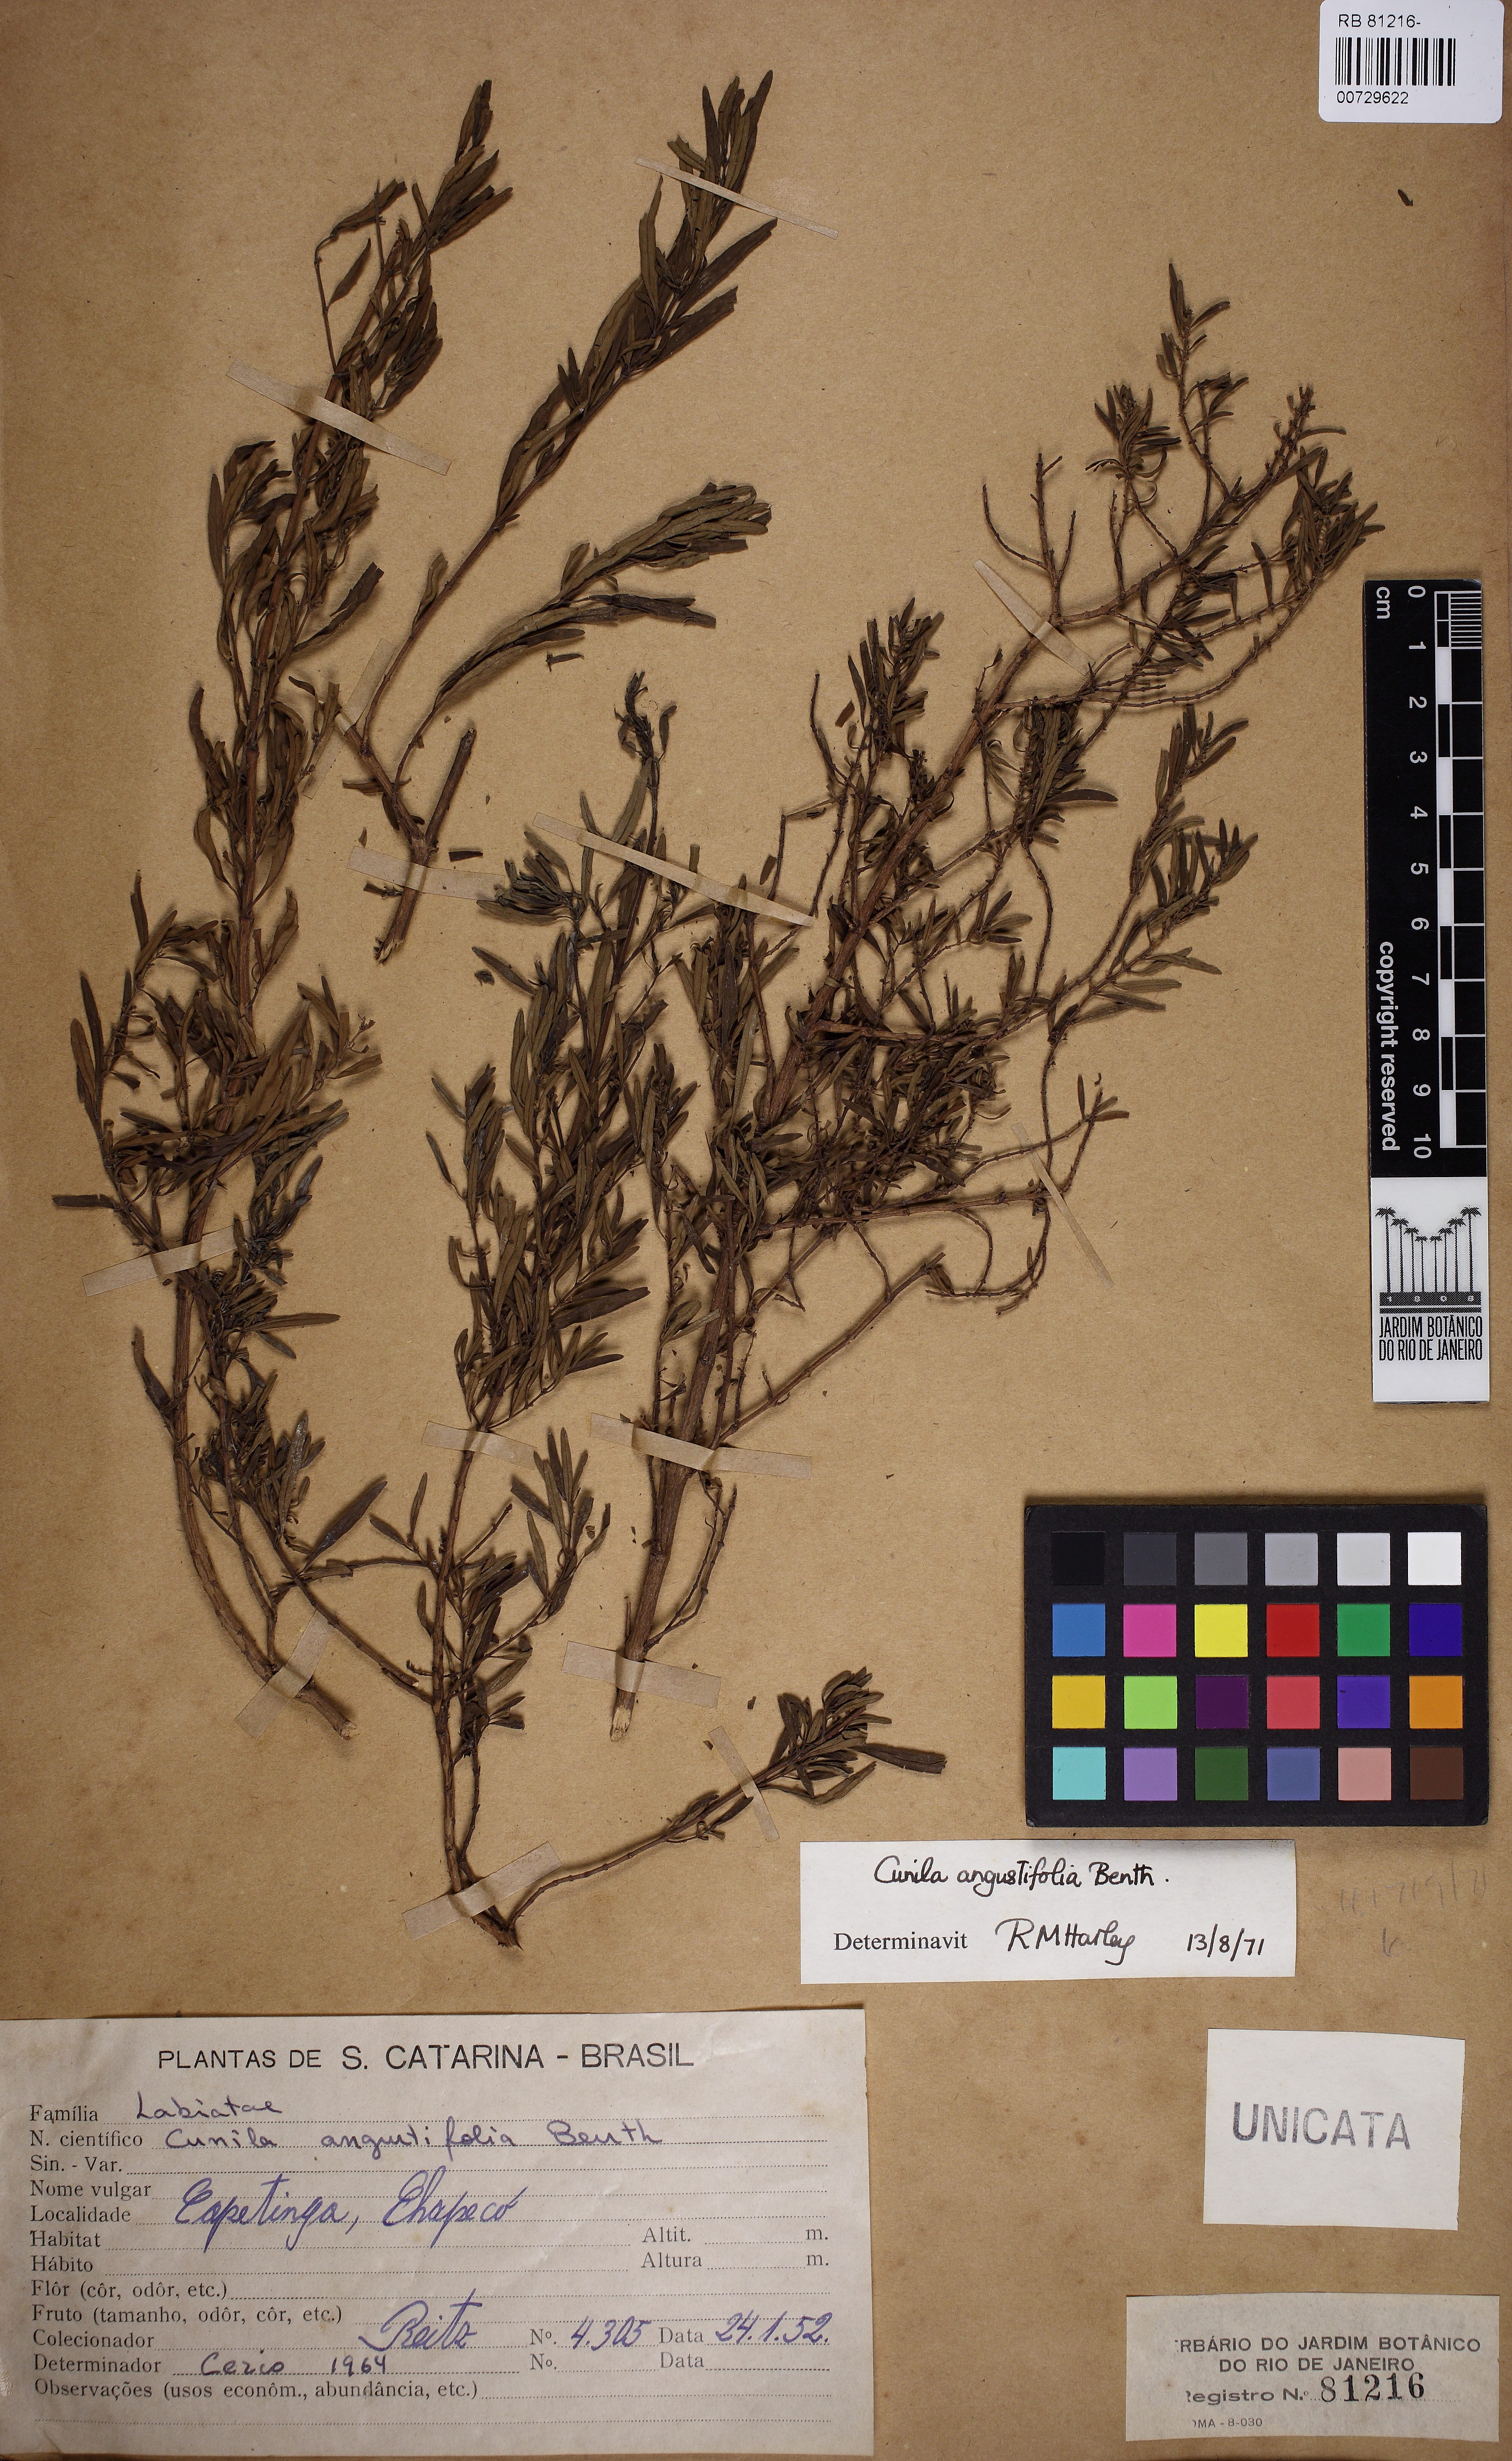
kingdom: Plantae
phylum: Tracheophyta
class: Magnoliopsida
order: Lamiales
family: Lamiaceae
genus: Cunila
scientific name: Cunila angustifolia
